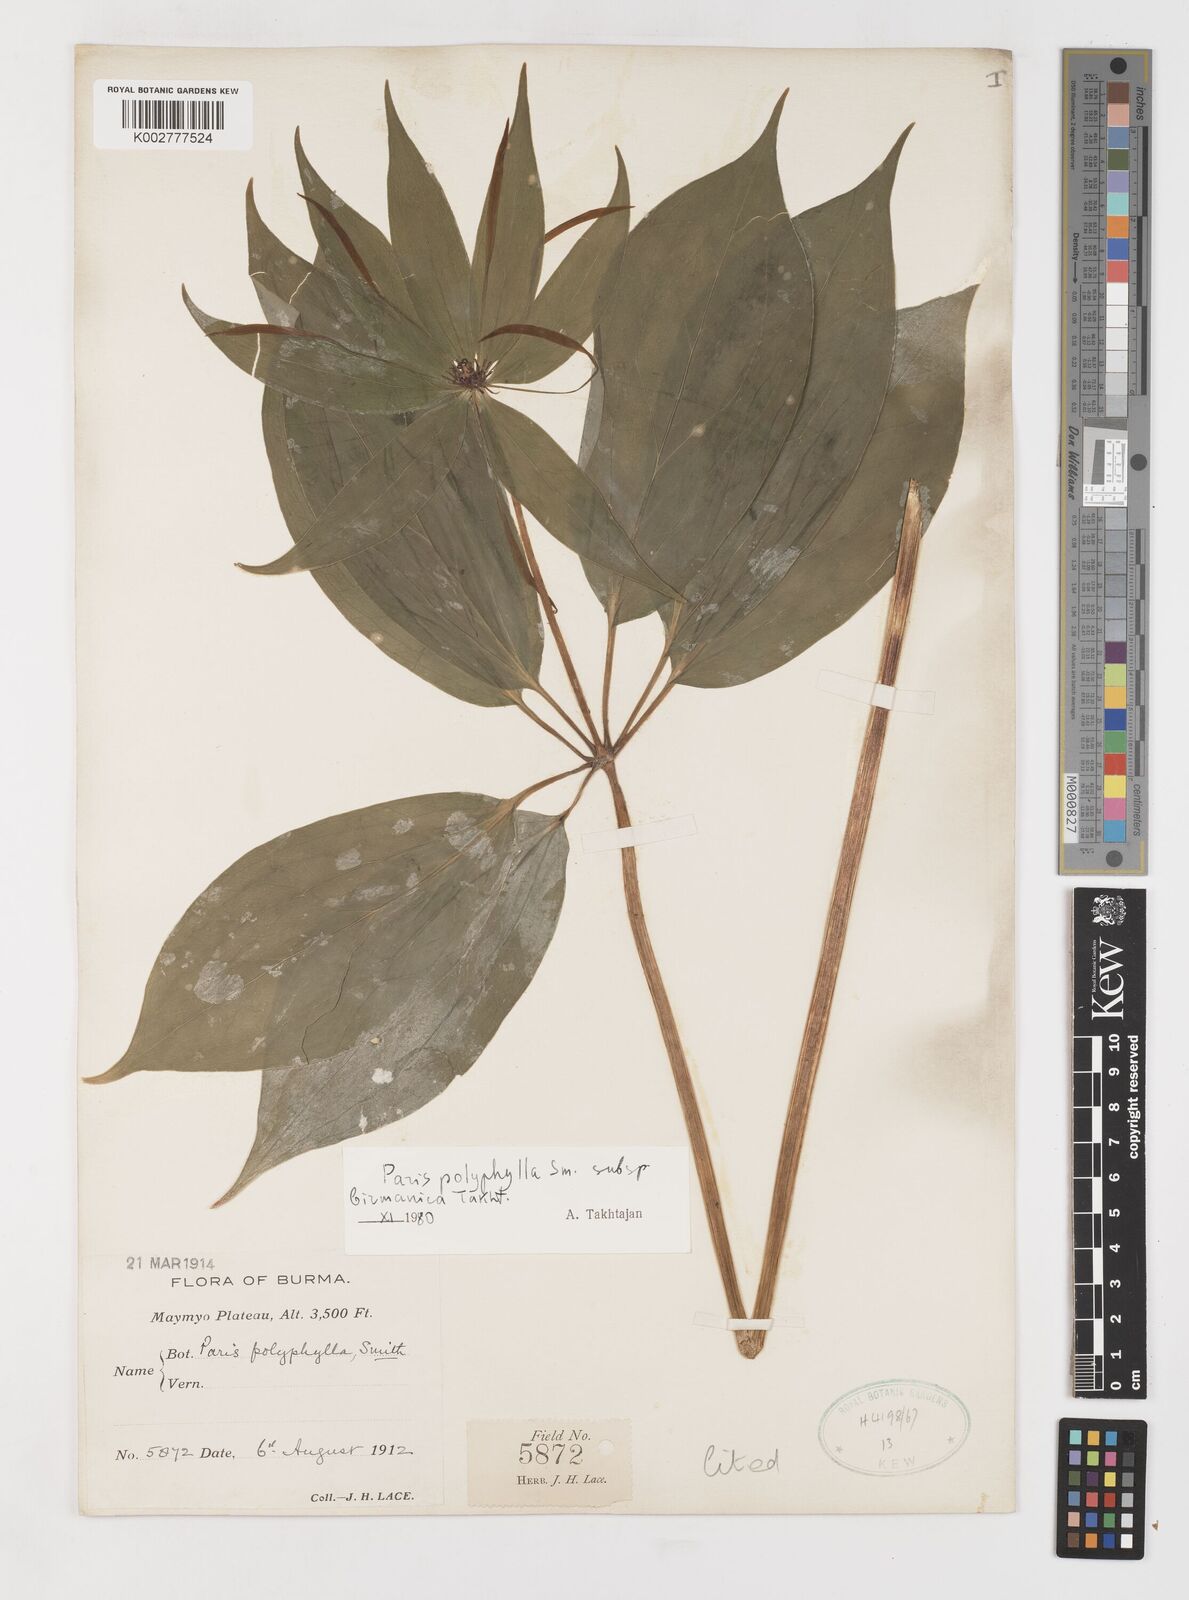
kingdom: Plantae
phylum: Tracheophyta
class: Liliopsida
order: Liliales
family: Melanthiaceae
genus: Paris
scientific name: Paris yunnanensis
